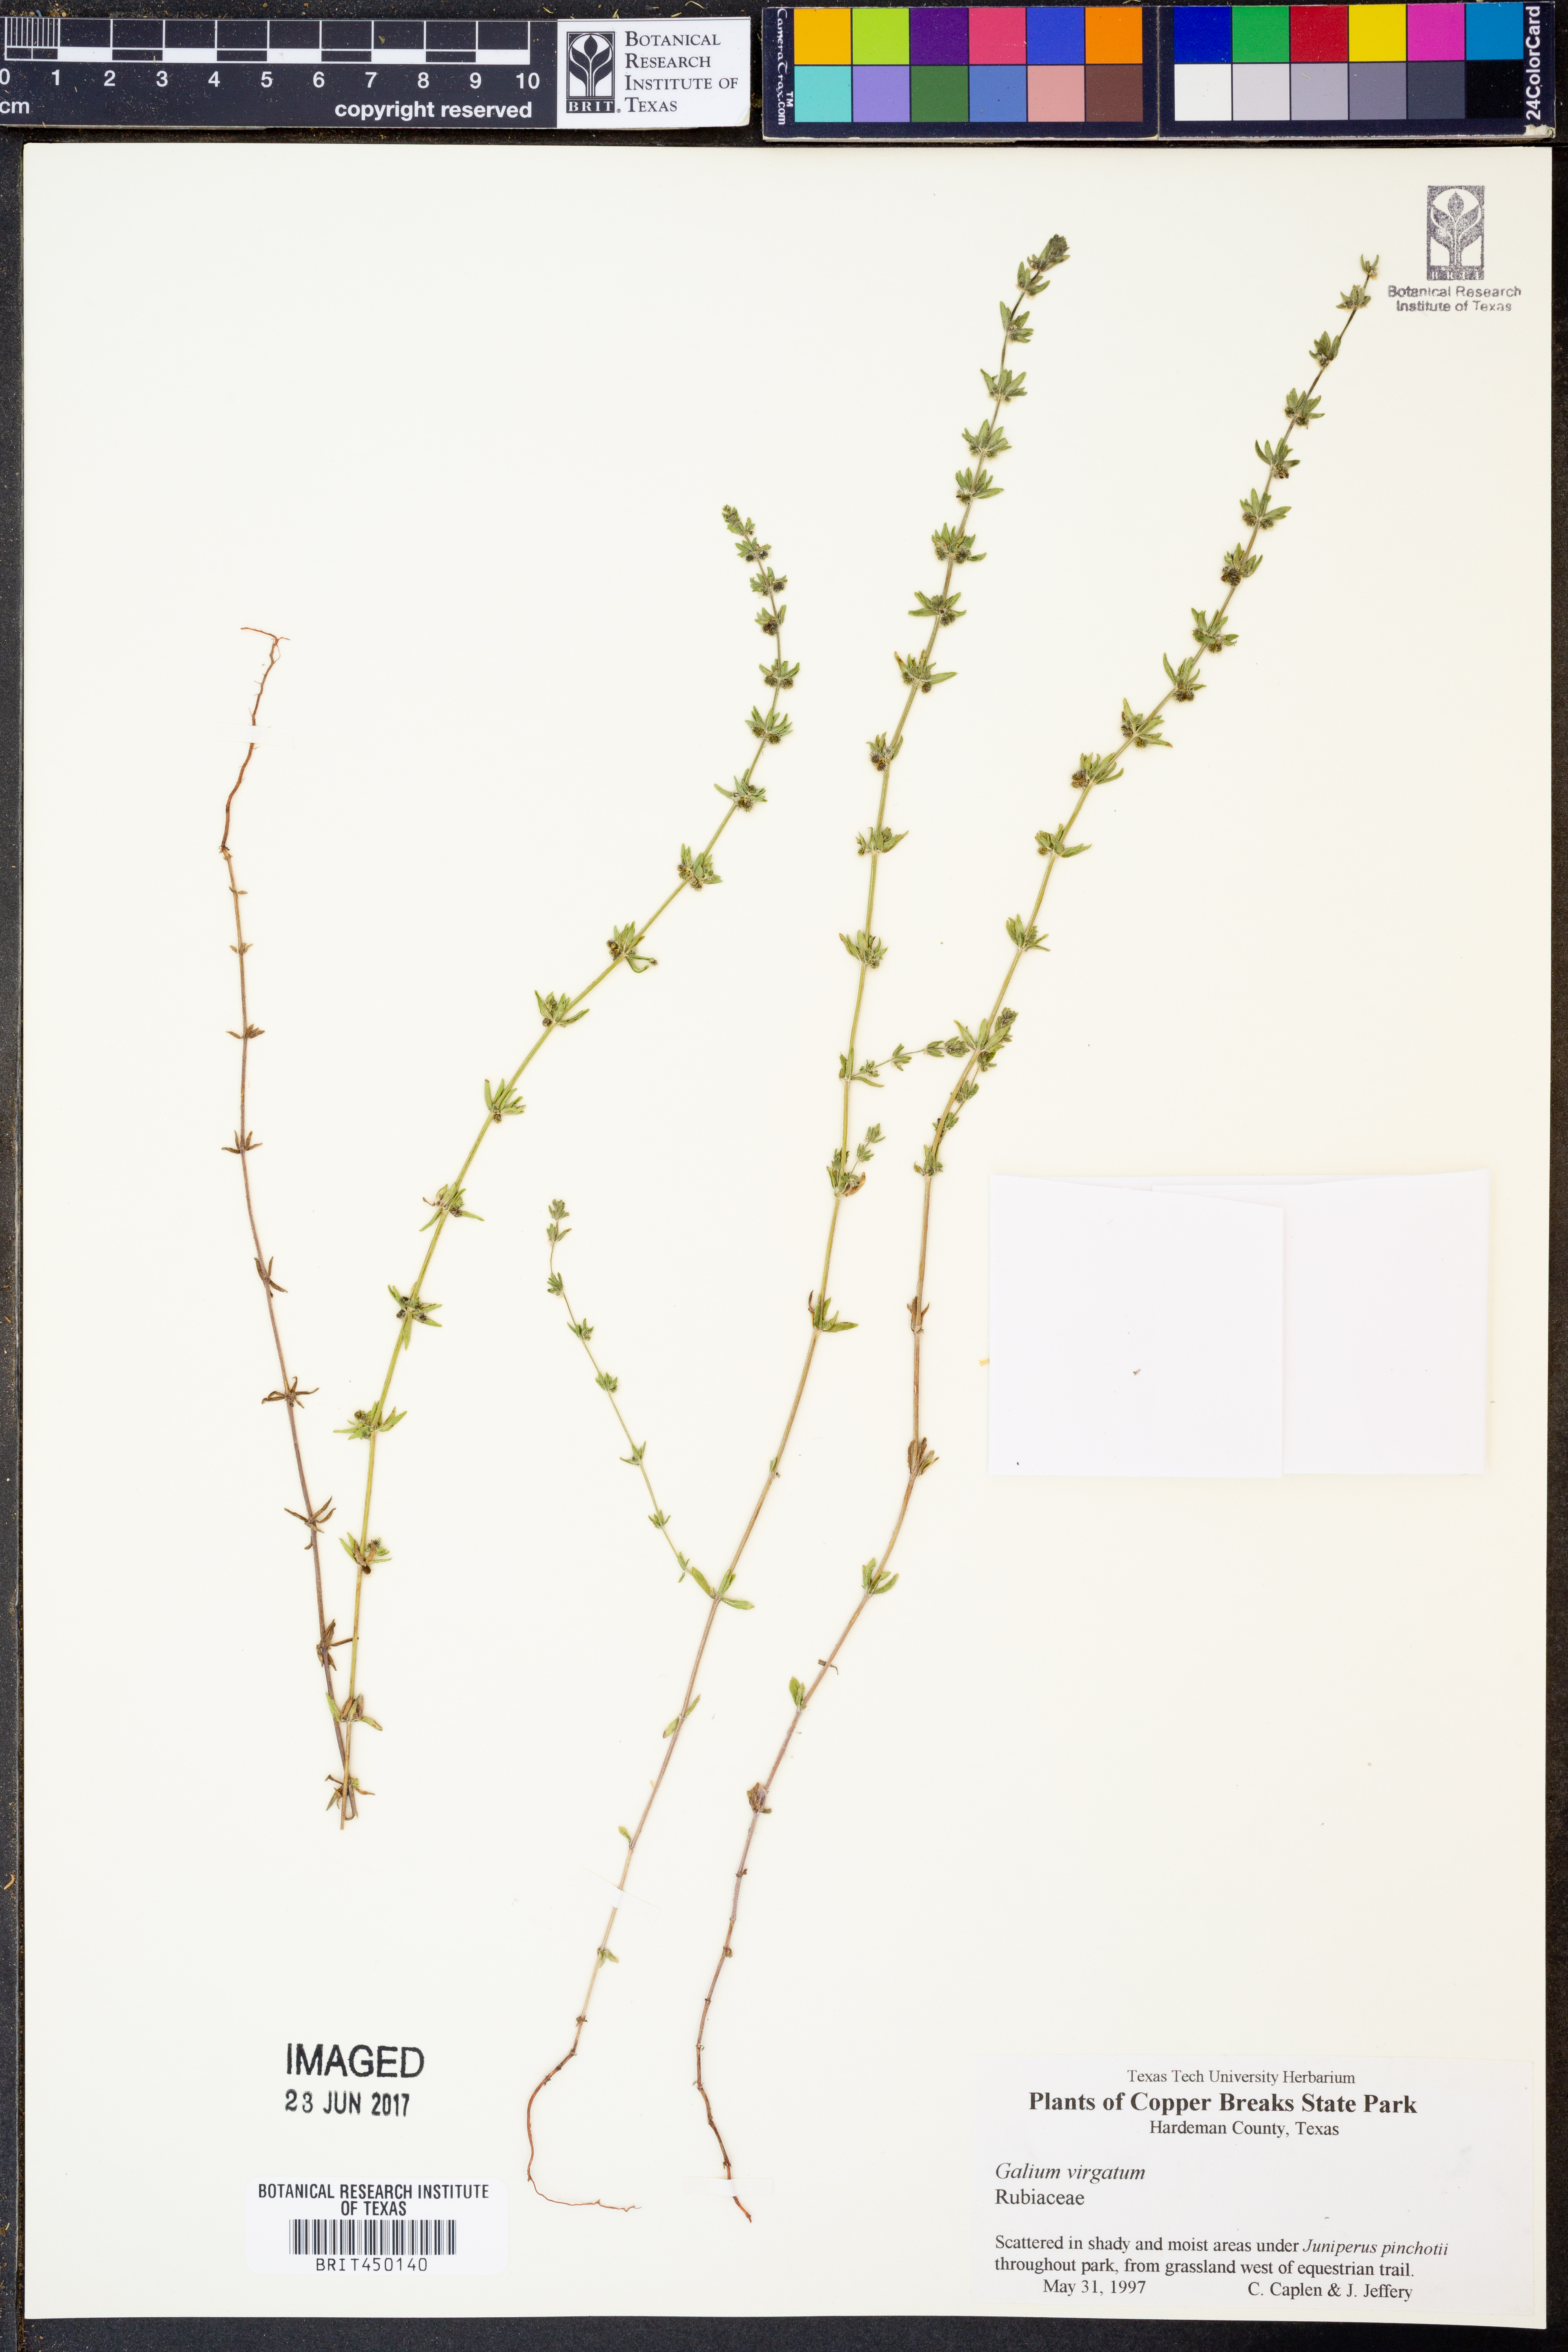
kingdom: Plantae
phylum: Tracheophyta
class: Magnoliopsida
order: Gentianales
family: Rubiaceae
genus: Galium
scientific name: Galium virgatum
